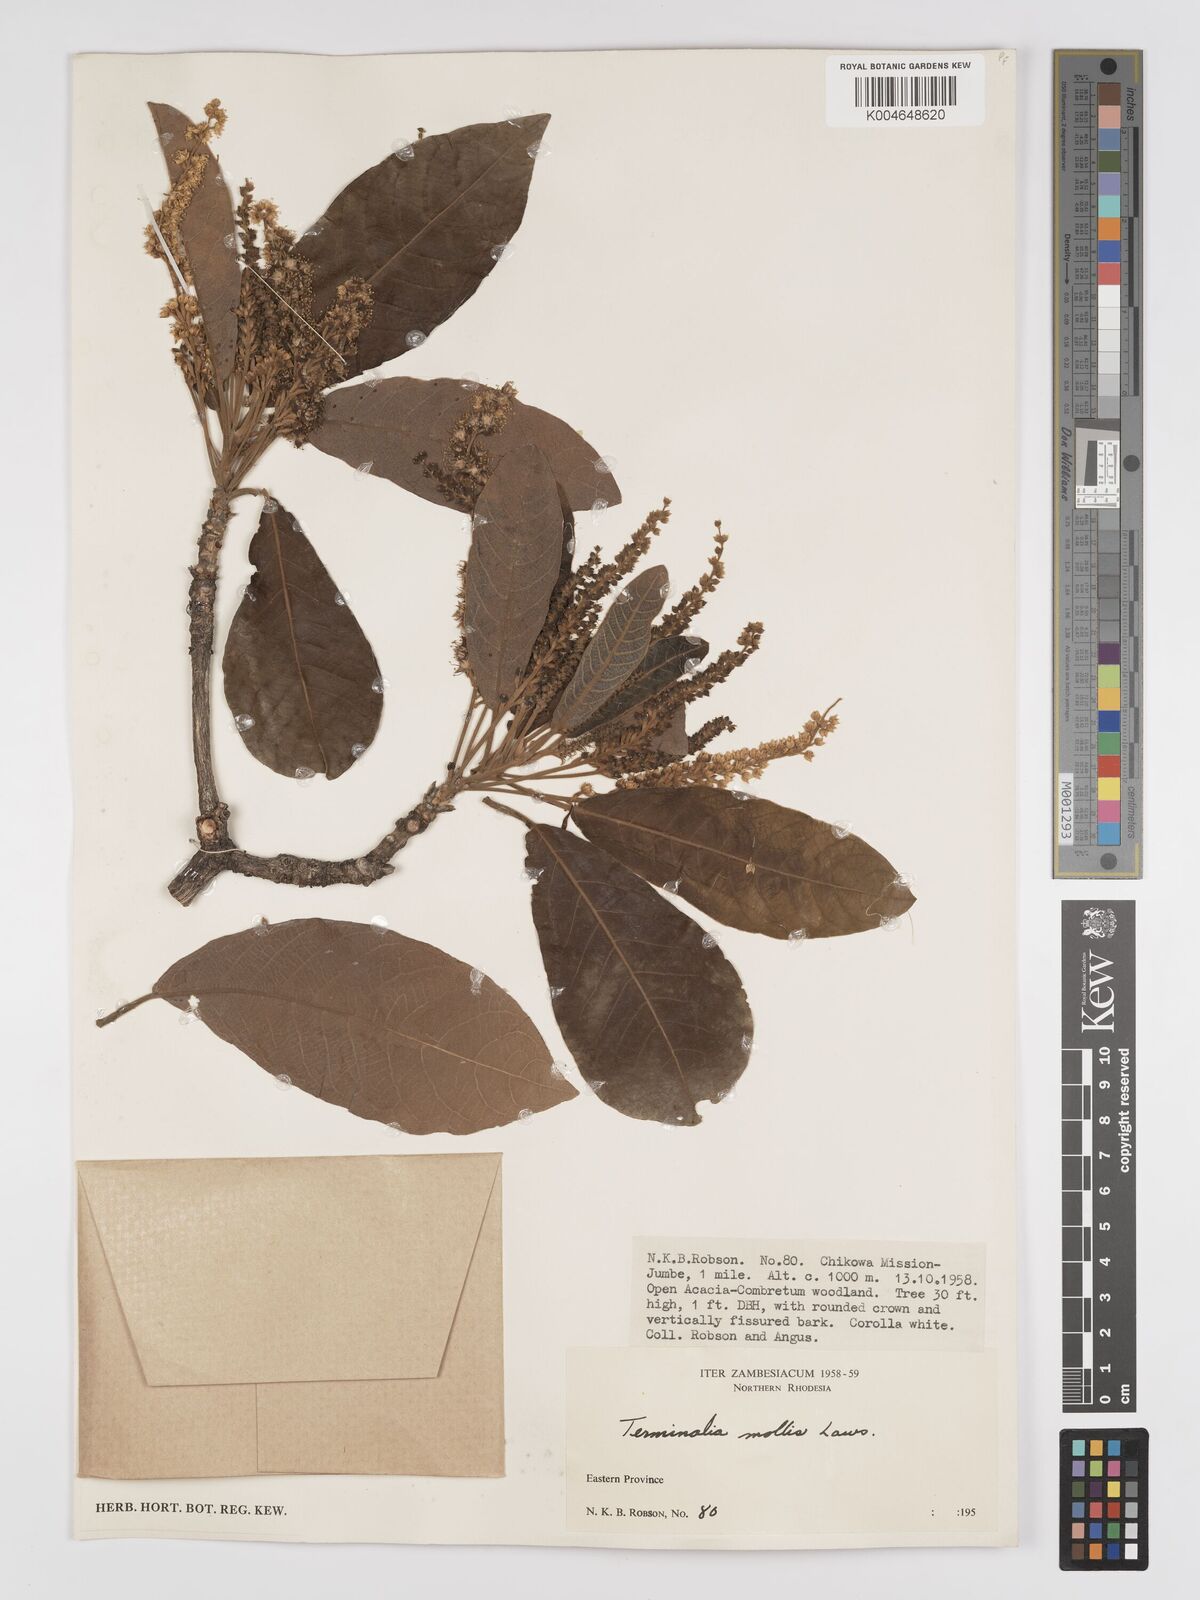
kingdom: Plantae
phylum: Tracheophyta
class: Magnoliopsida
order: Myrtales
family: Combretaceae
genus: Terminalia
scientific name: Terminalia
